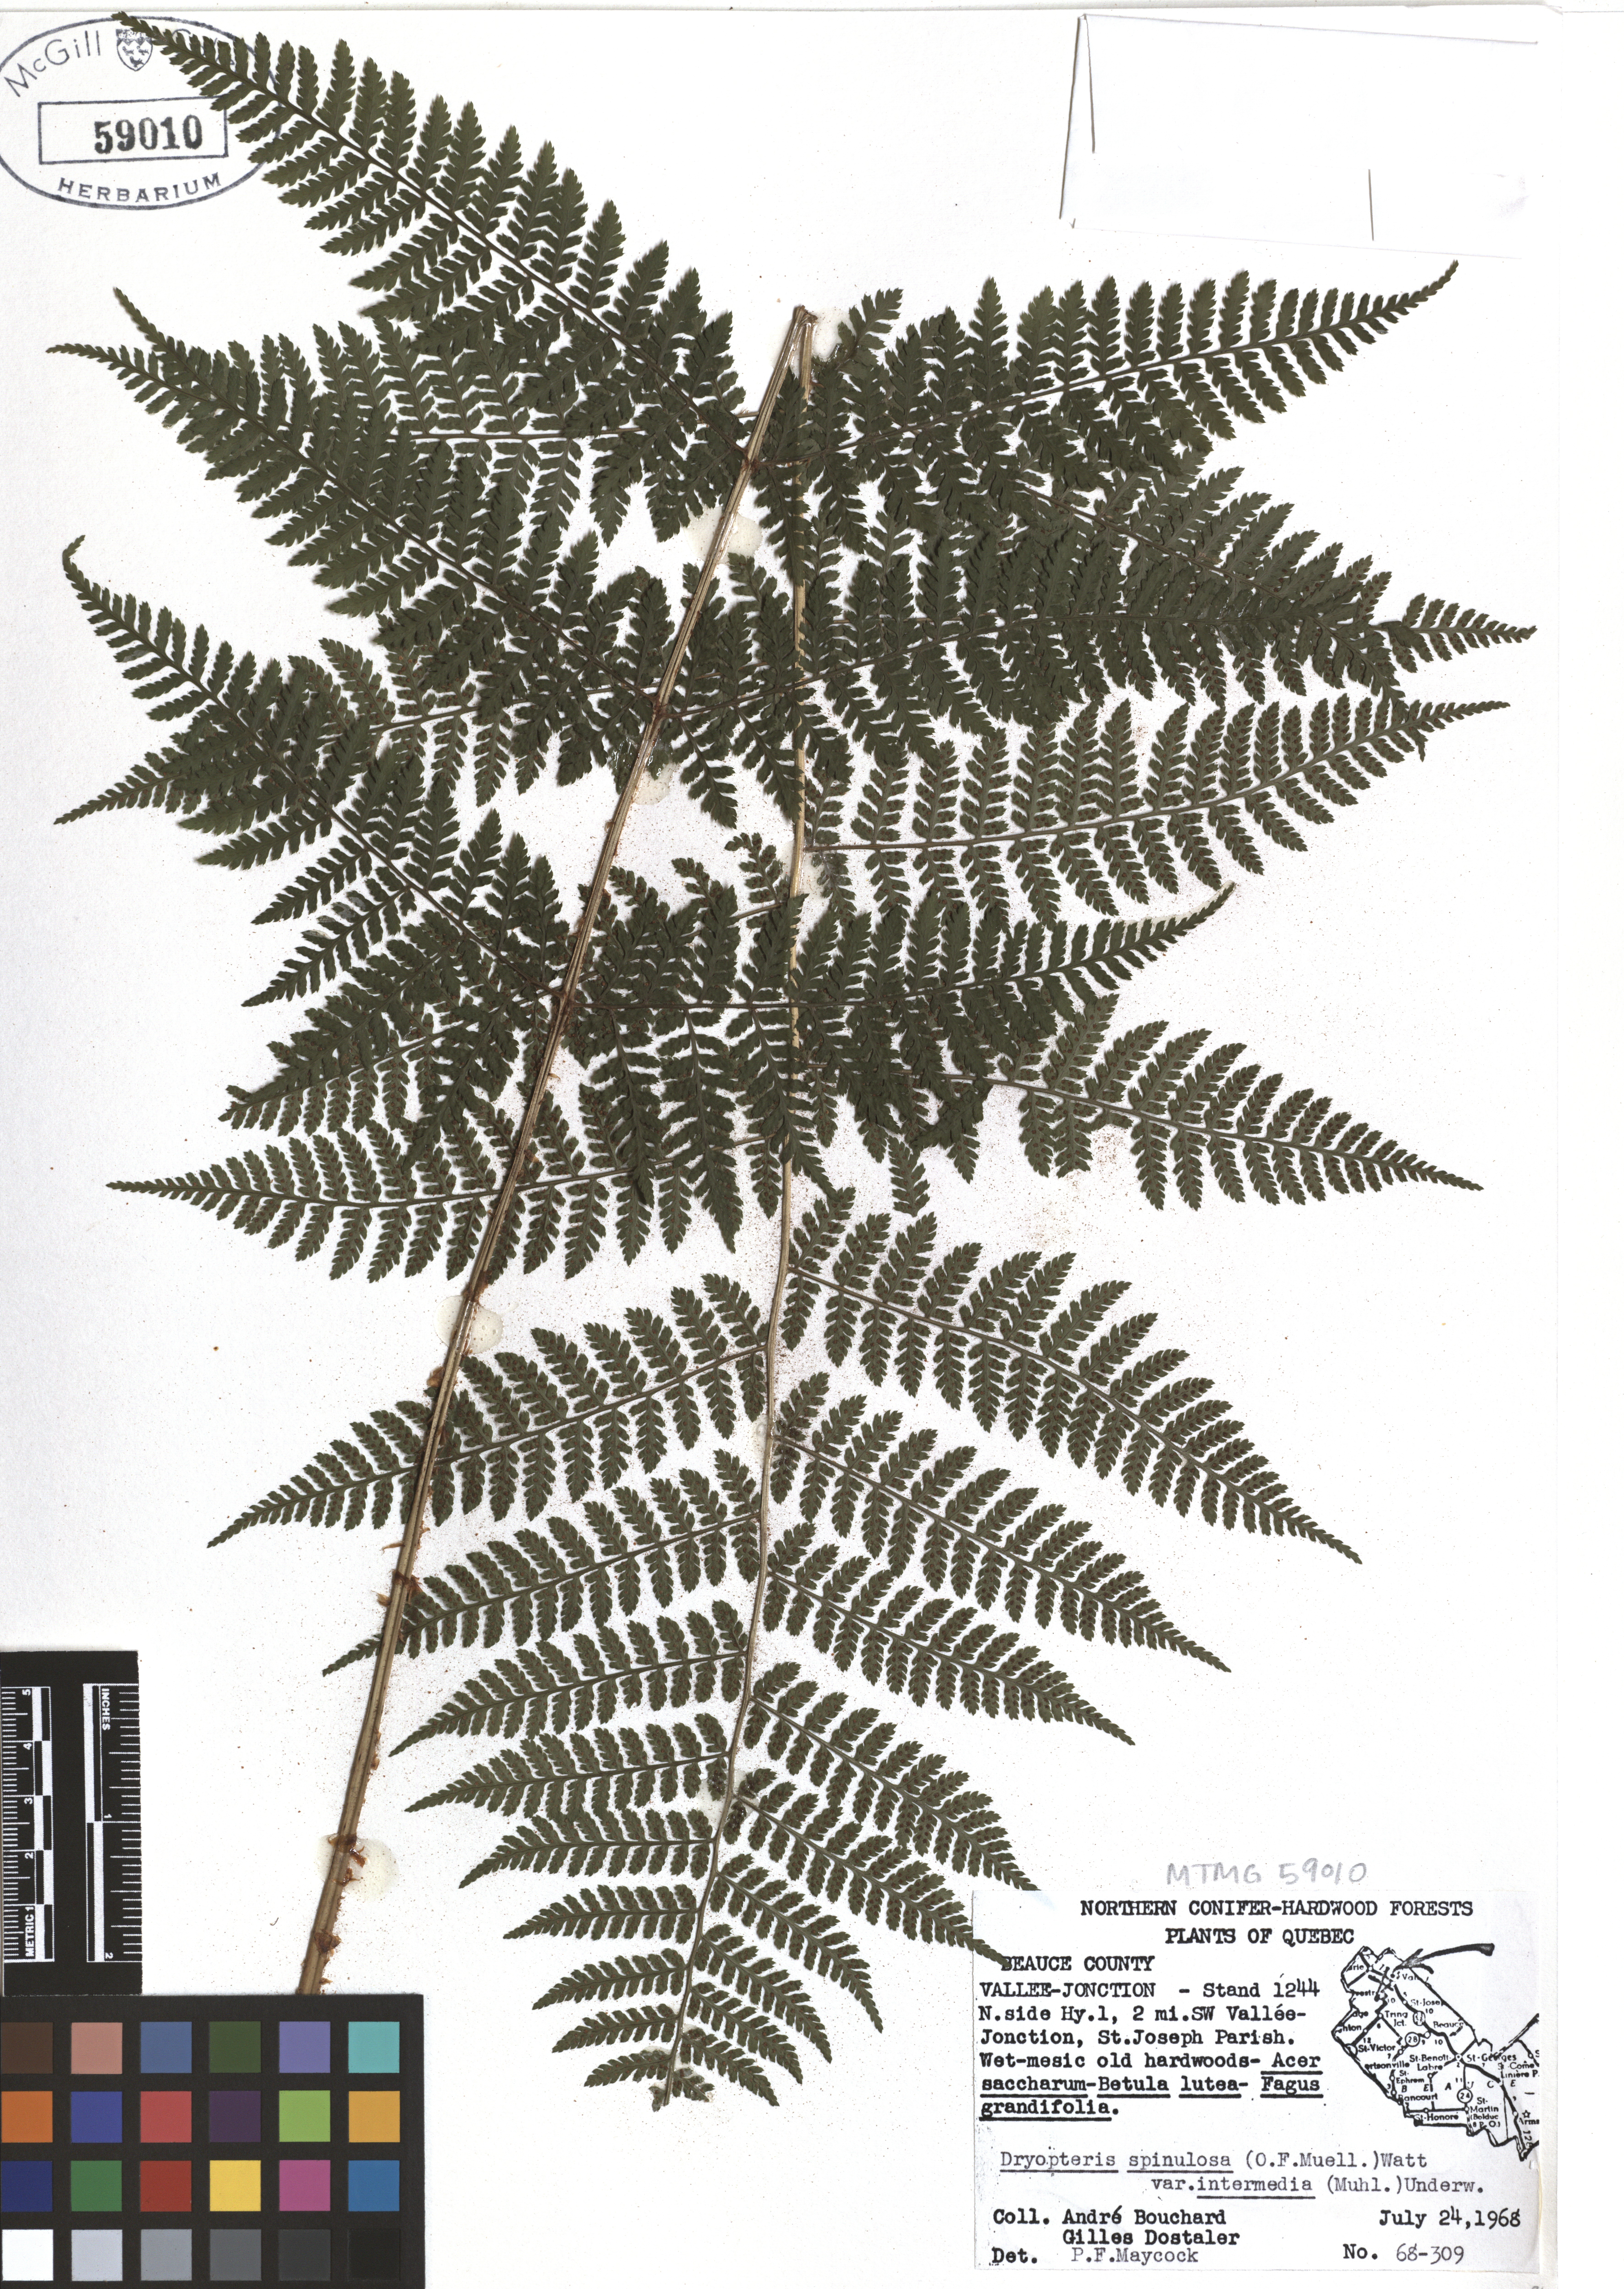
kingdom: Plantae
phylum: Tracheophyta
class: Polypodiopsida
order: Polypodiales
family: Dryopteridaceae
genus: Dryopteris
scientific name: Dryopteris intermedia
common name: Evergreen wood fern
